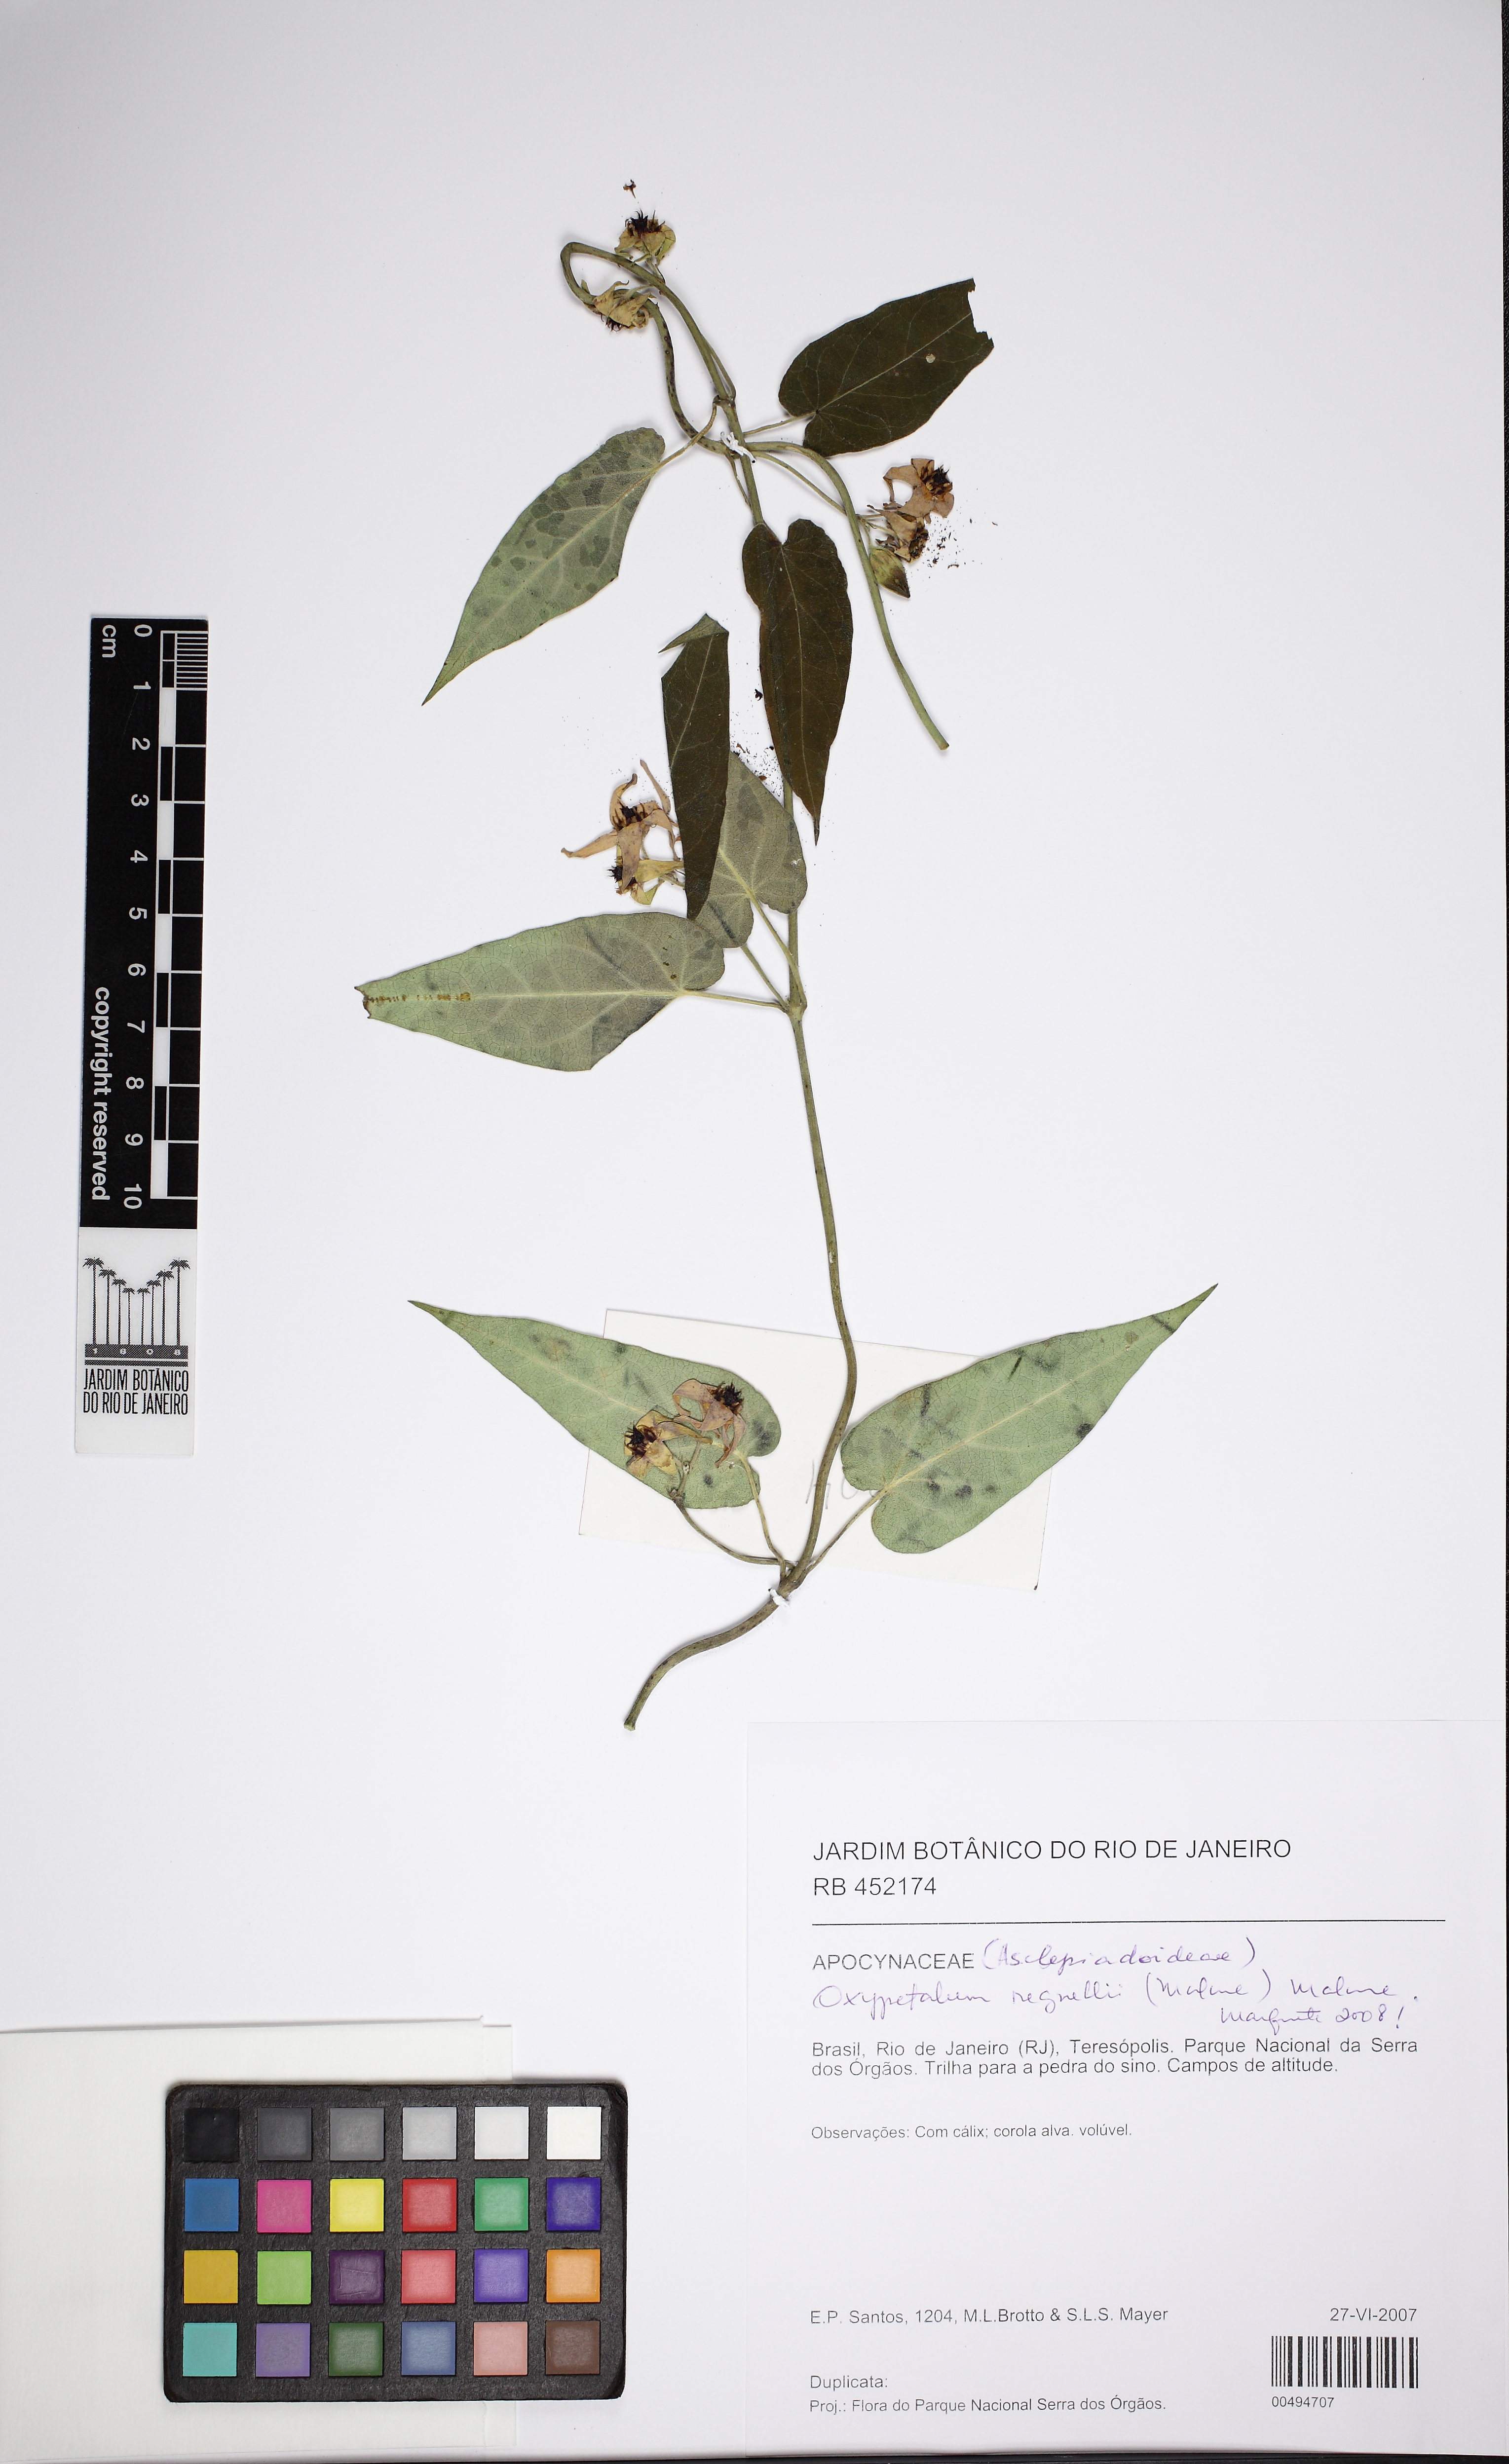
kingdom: Plantae
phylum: Tracheophyta
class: Magnoliopsida
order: Gentianales
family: Apocynaceae
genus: Oxypetalum
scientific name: Oxypetalum regnellii
